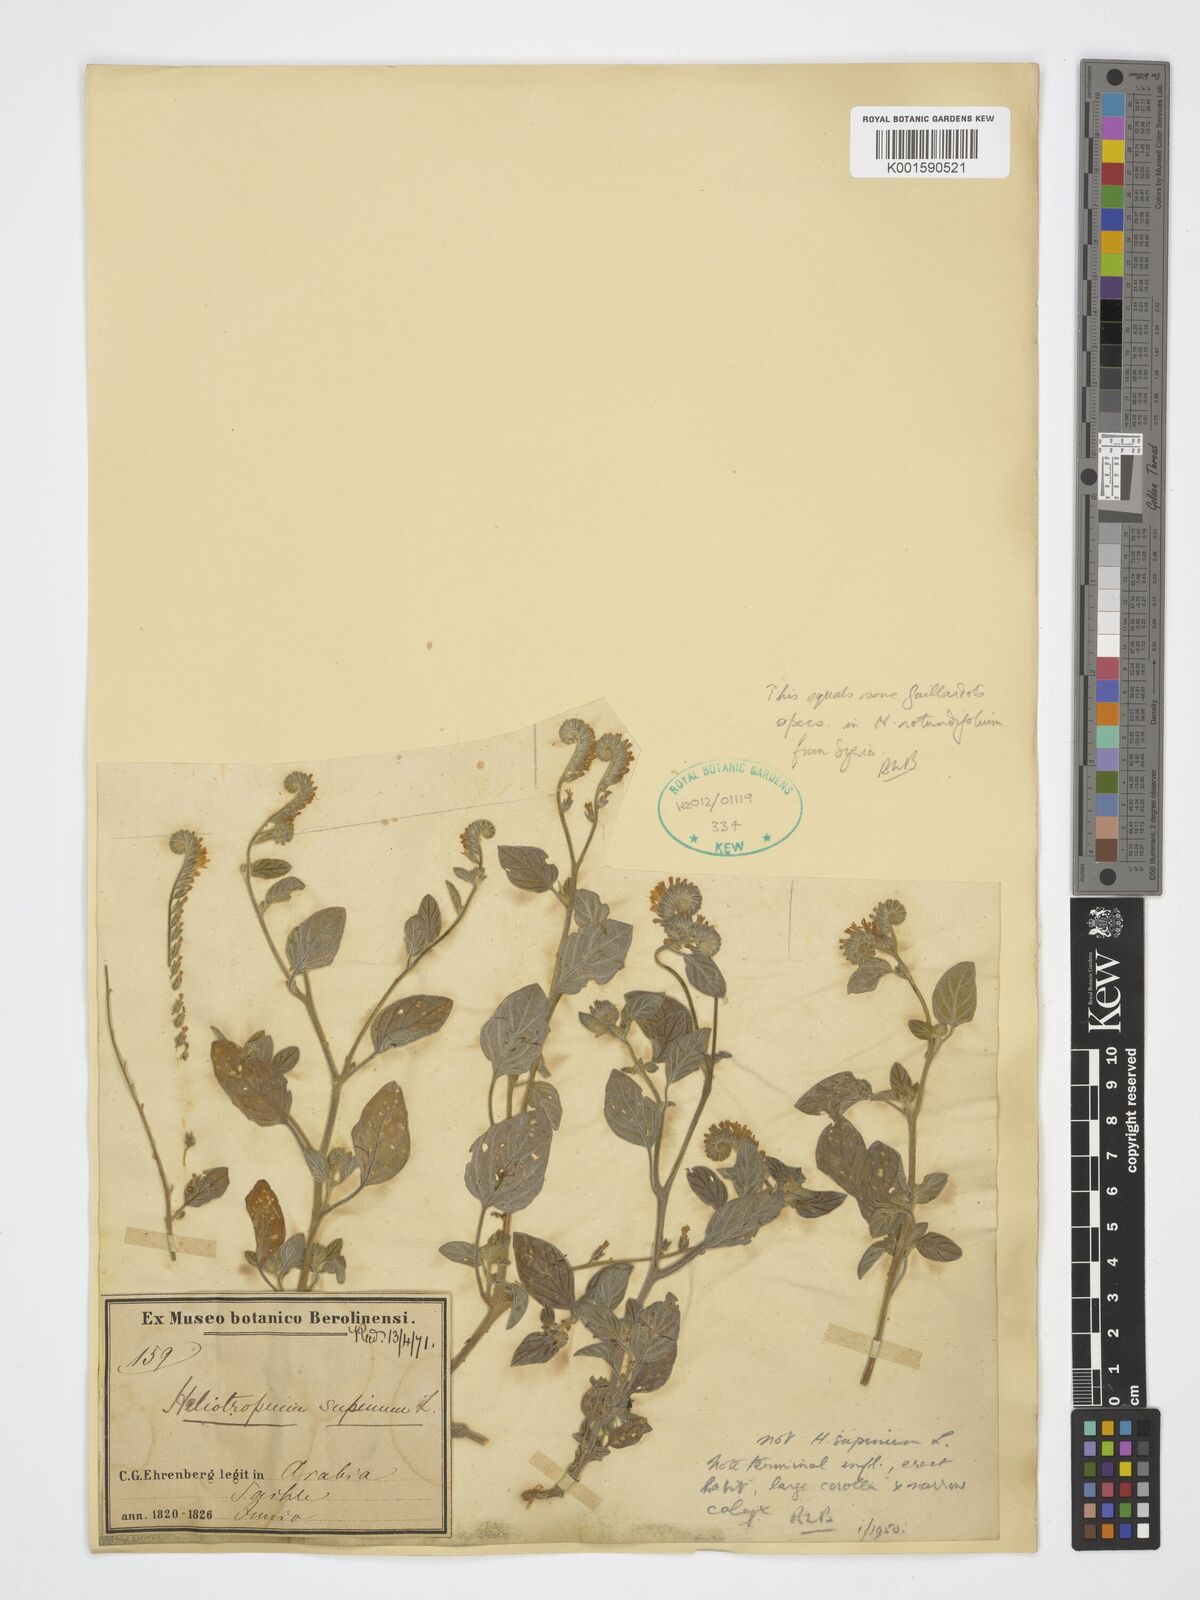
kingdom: Plantae
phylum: Tracheophyta
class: Magnoliopsida
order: Boraginales
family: Heliotropiaceae
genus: Heliotropium
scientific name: Heliotropium
